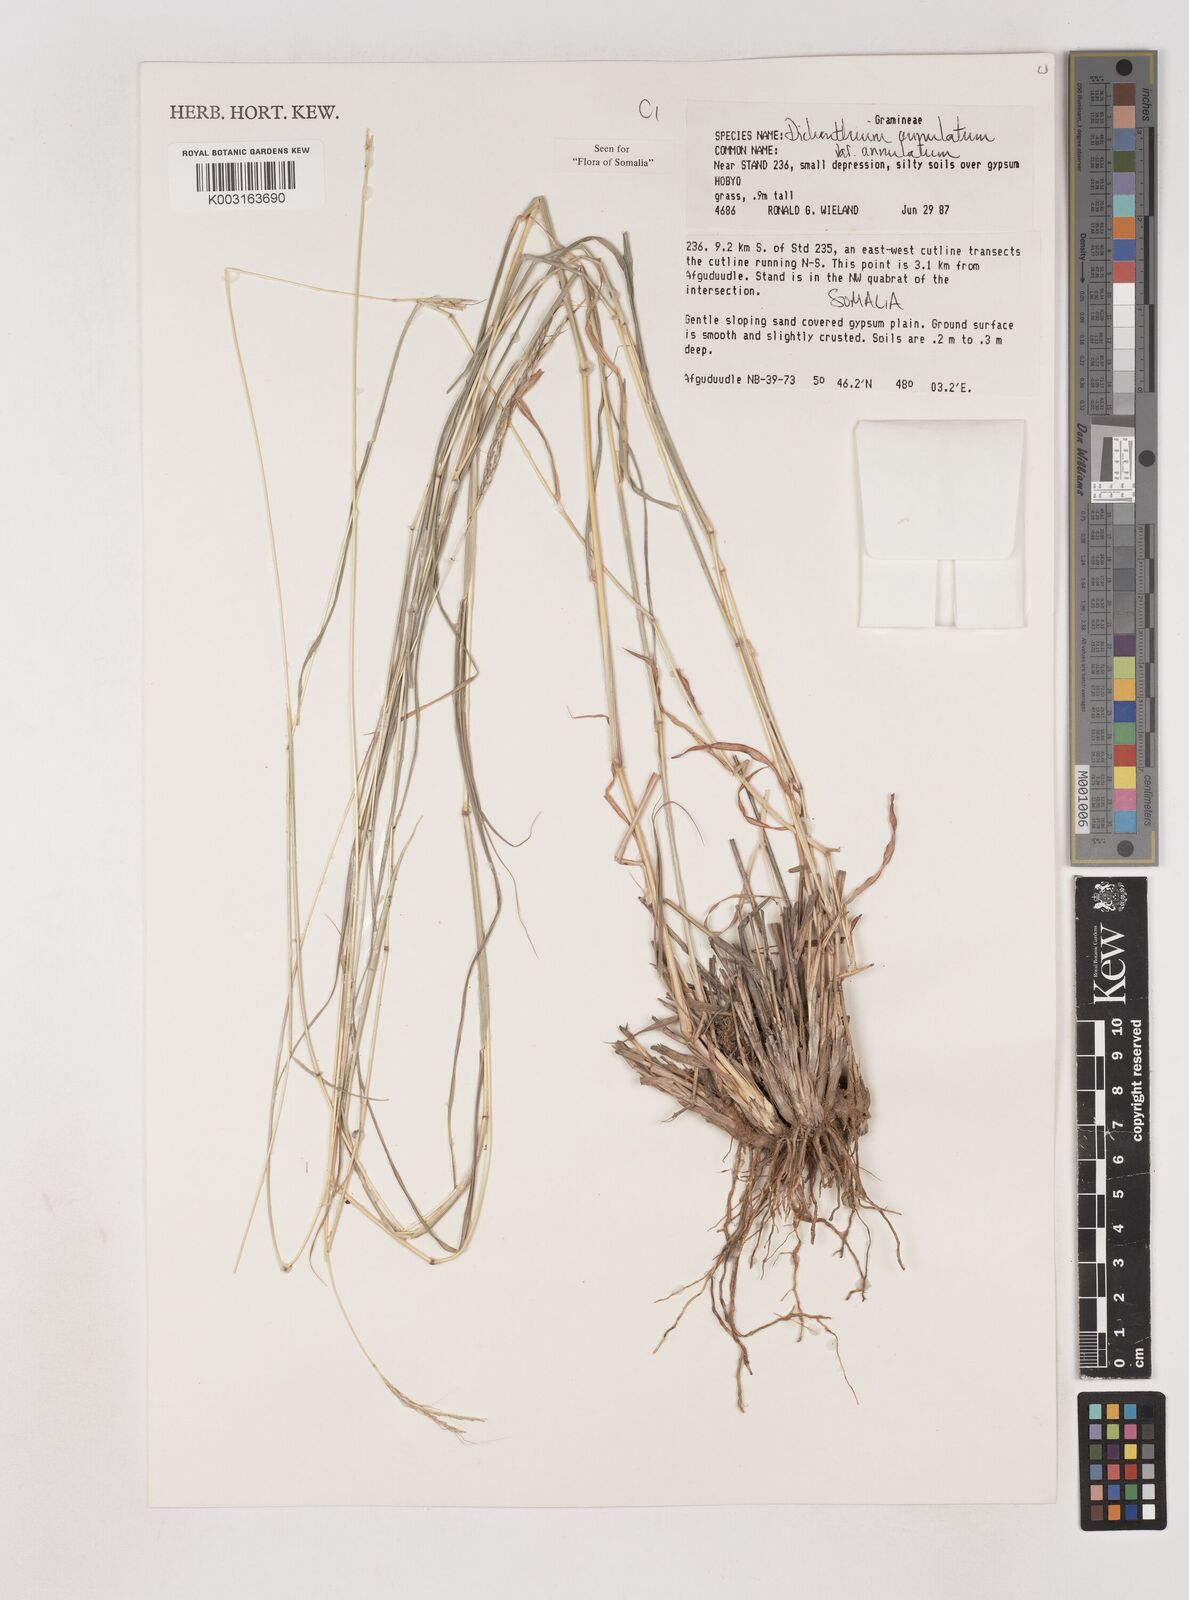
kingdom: Plantae
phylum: Tracheophyta
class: Liliopsida
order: Poales
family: Poaceae
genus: Dichanthium
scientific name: Dichanthium annulatum
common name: Kleberg's bluestem
